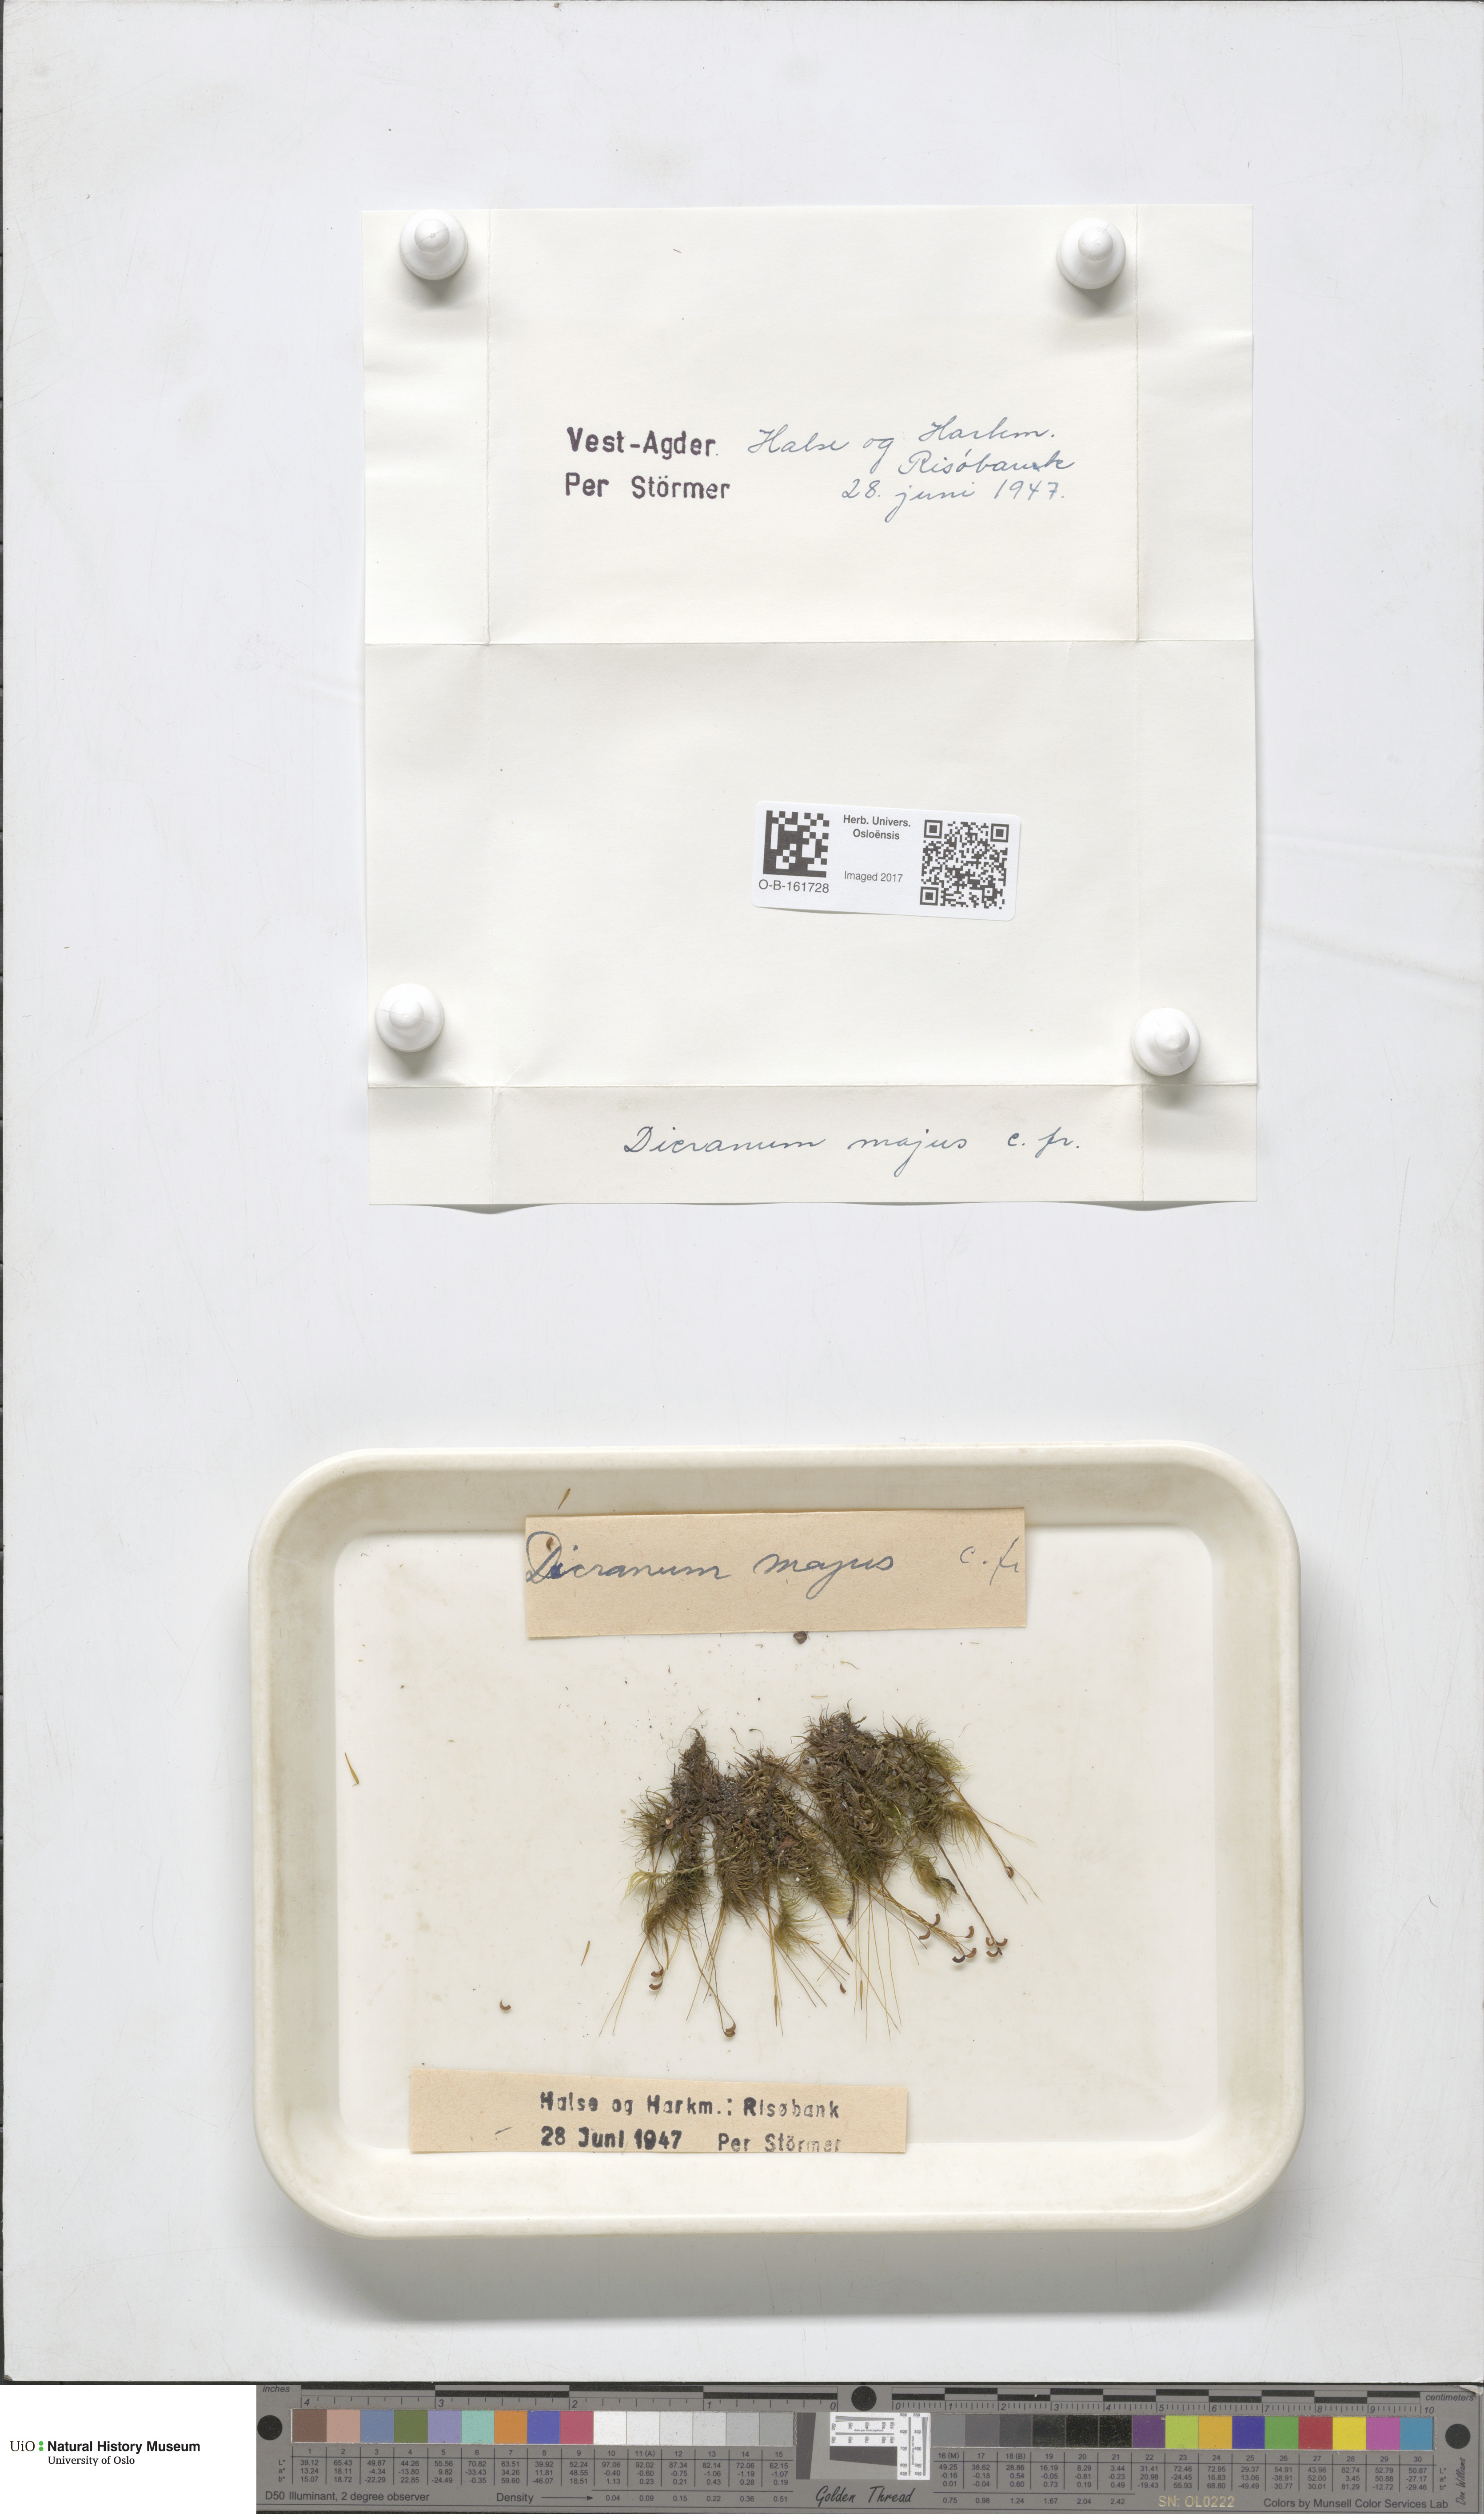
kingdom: Plantae
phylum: Bryophyta
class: Bryopsida
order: Dicranales
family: Dicranaceae
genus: Dicranum
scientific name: Dicranum majus
